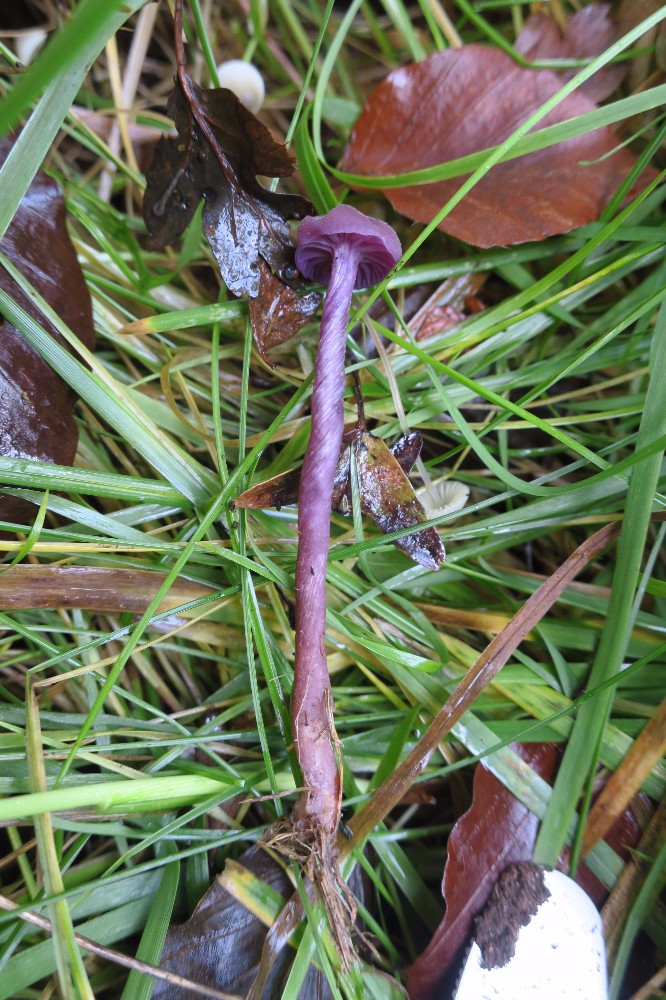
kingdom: Fungi
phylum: Basidiomycota
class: Agaricomycetes
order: Agaricales
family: Hydnangiaceae
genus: Laccaria
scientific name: Laccaria amethystina
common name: violet ametysthat
